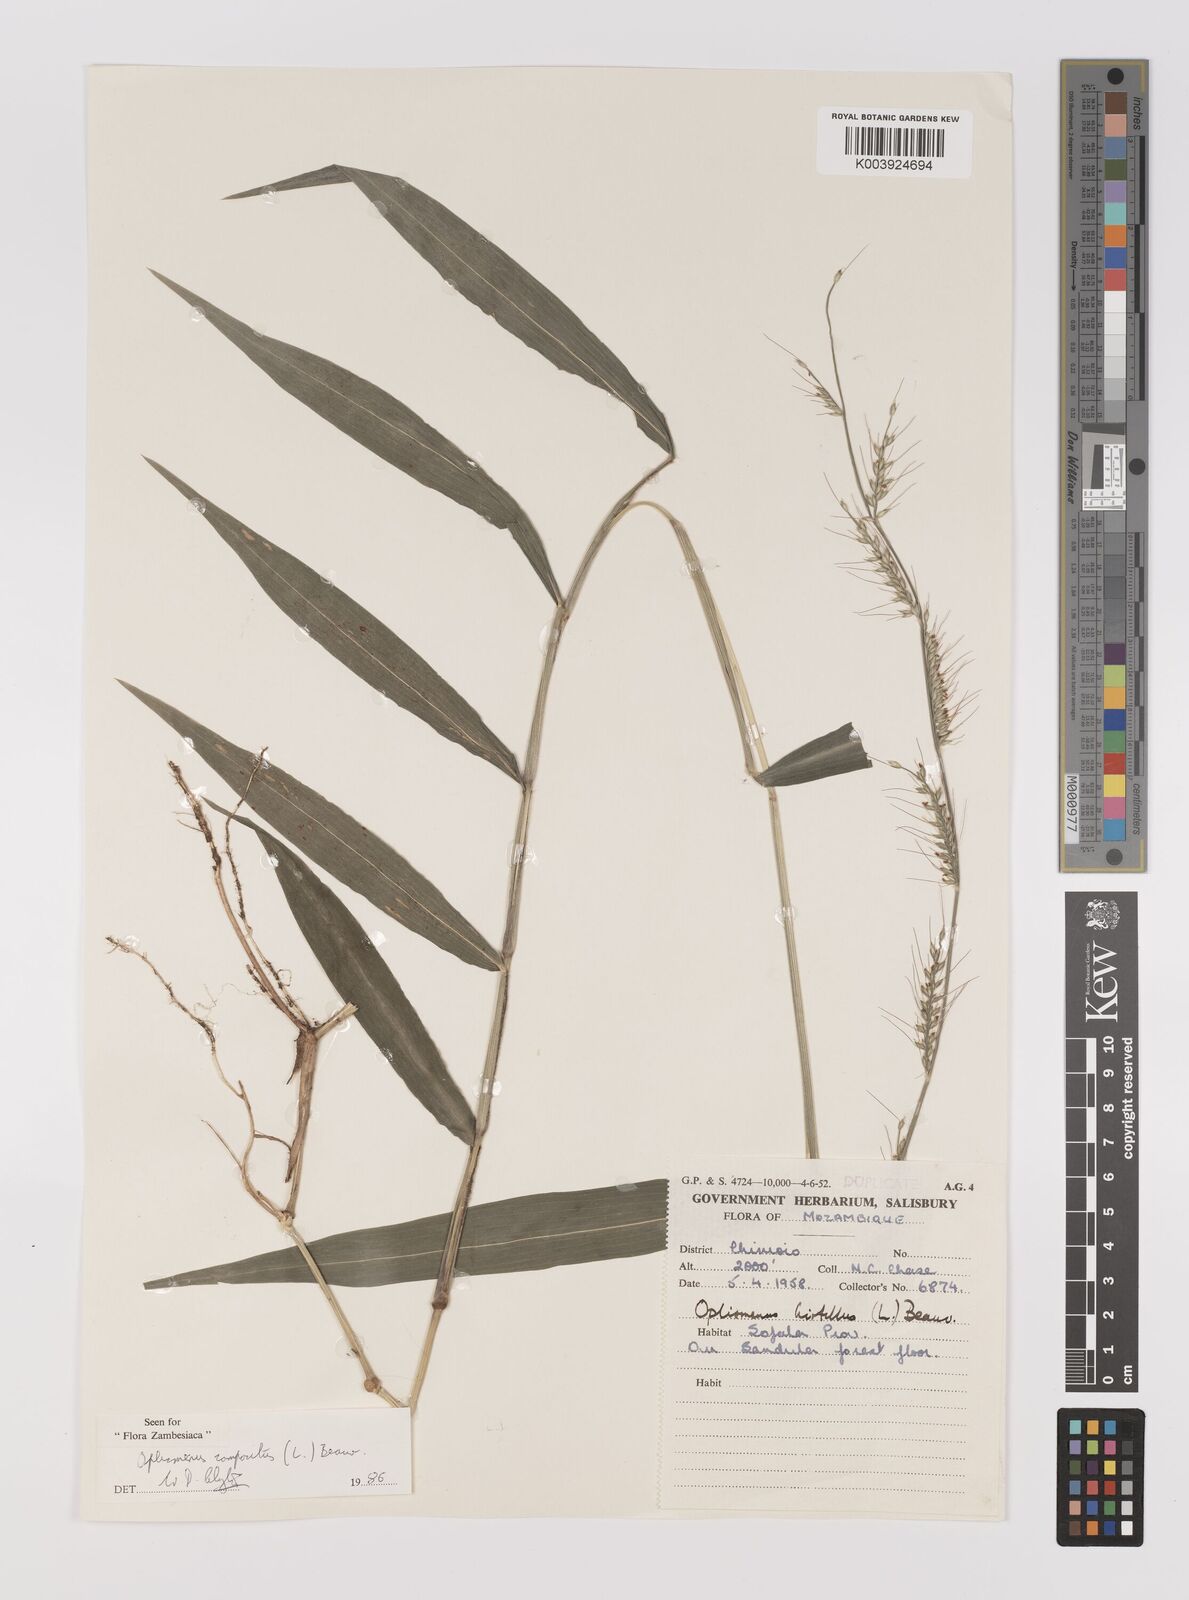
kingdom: Plantae
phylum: Tracheophyta
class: Liliopsida
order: Poales
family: Poaceae
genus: Oplismenus
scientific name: Oplismenus compositus
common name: Running mountain grass
